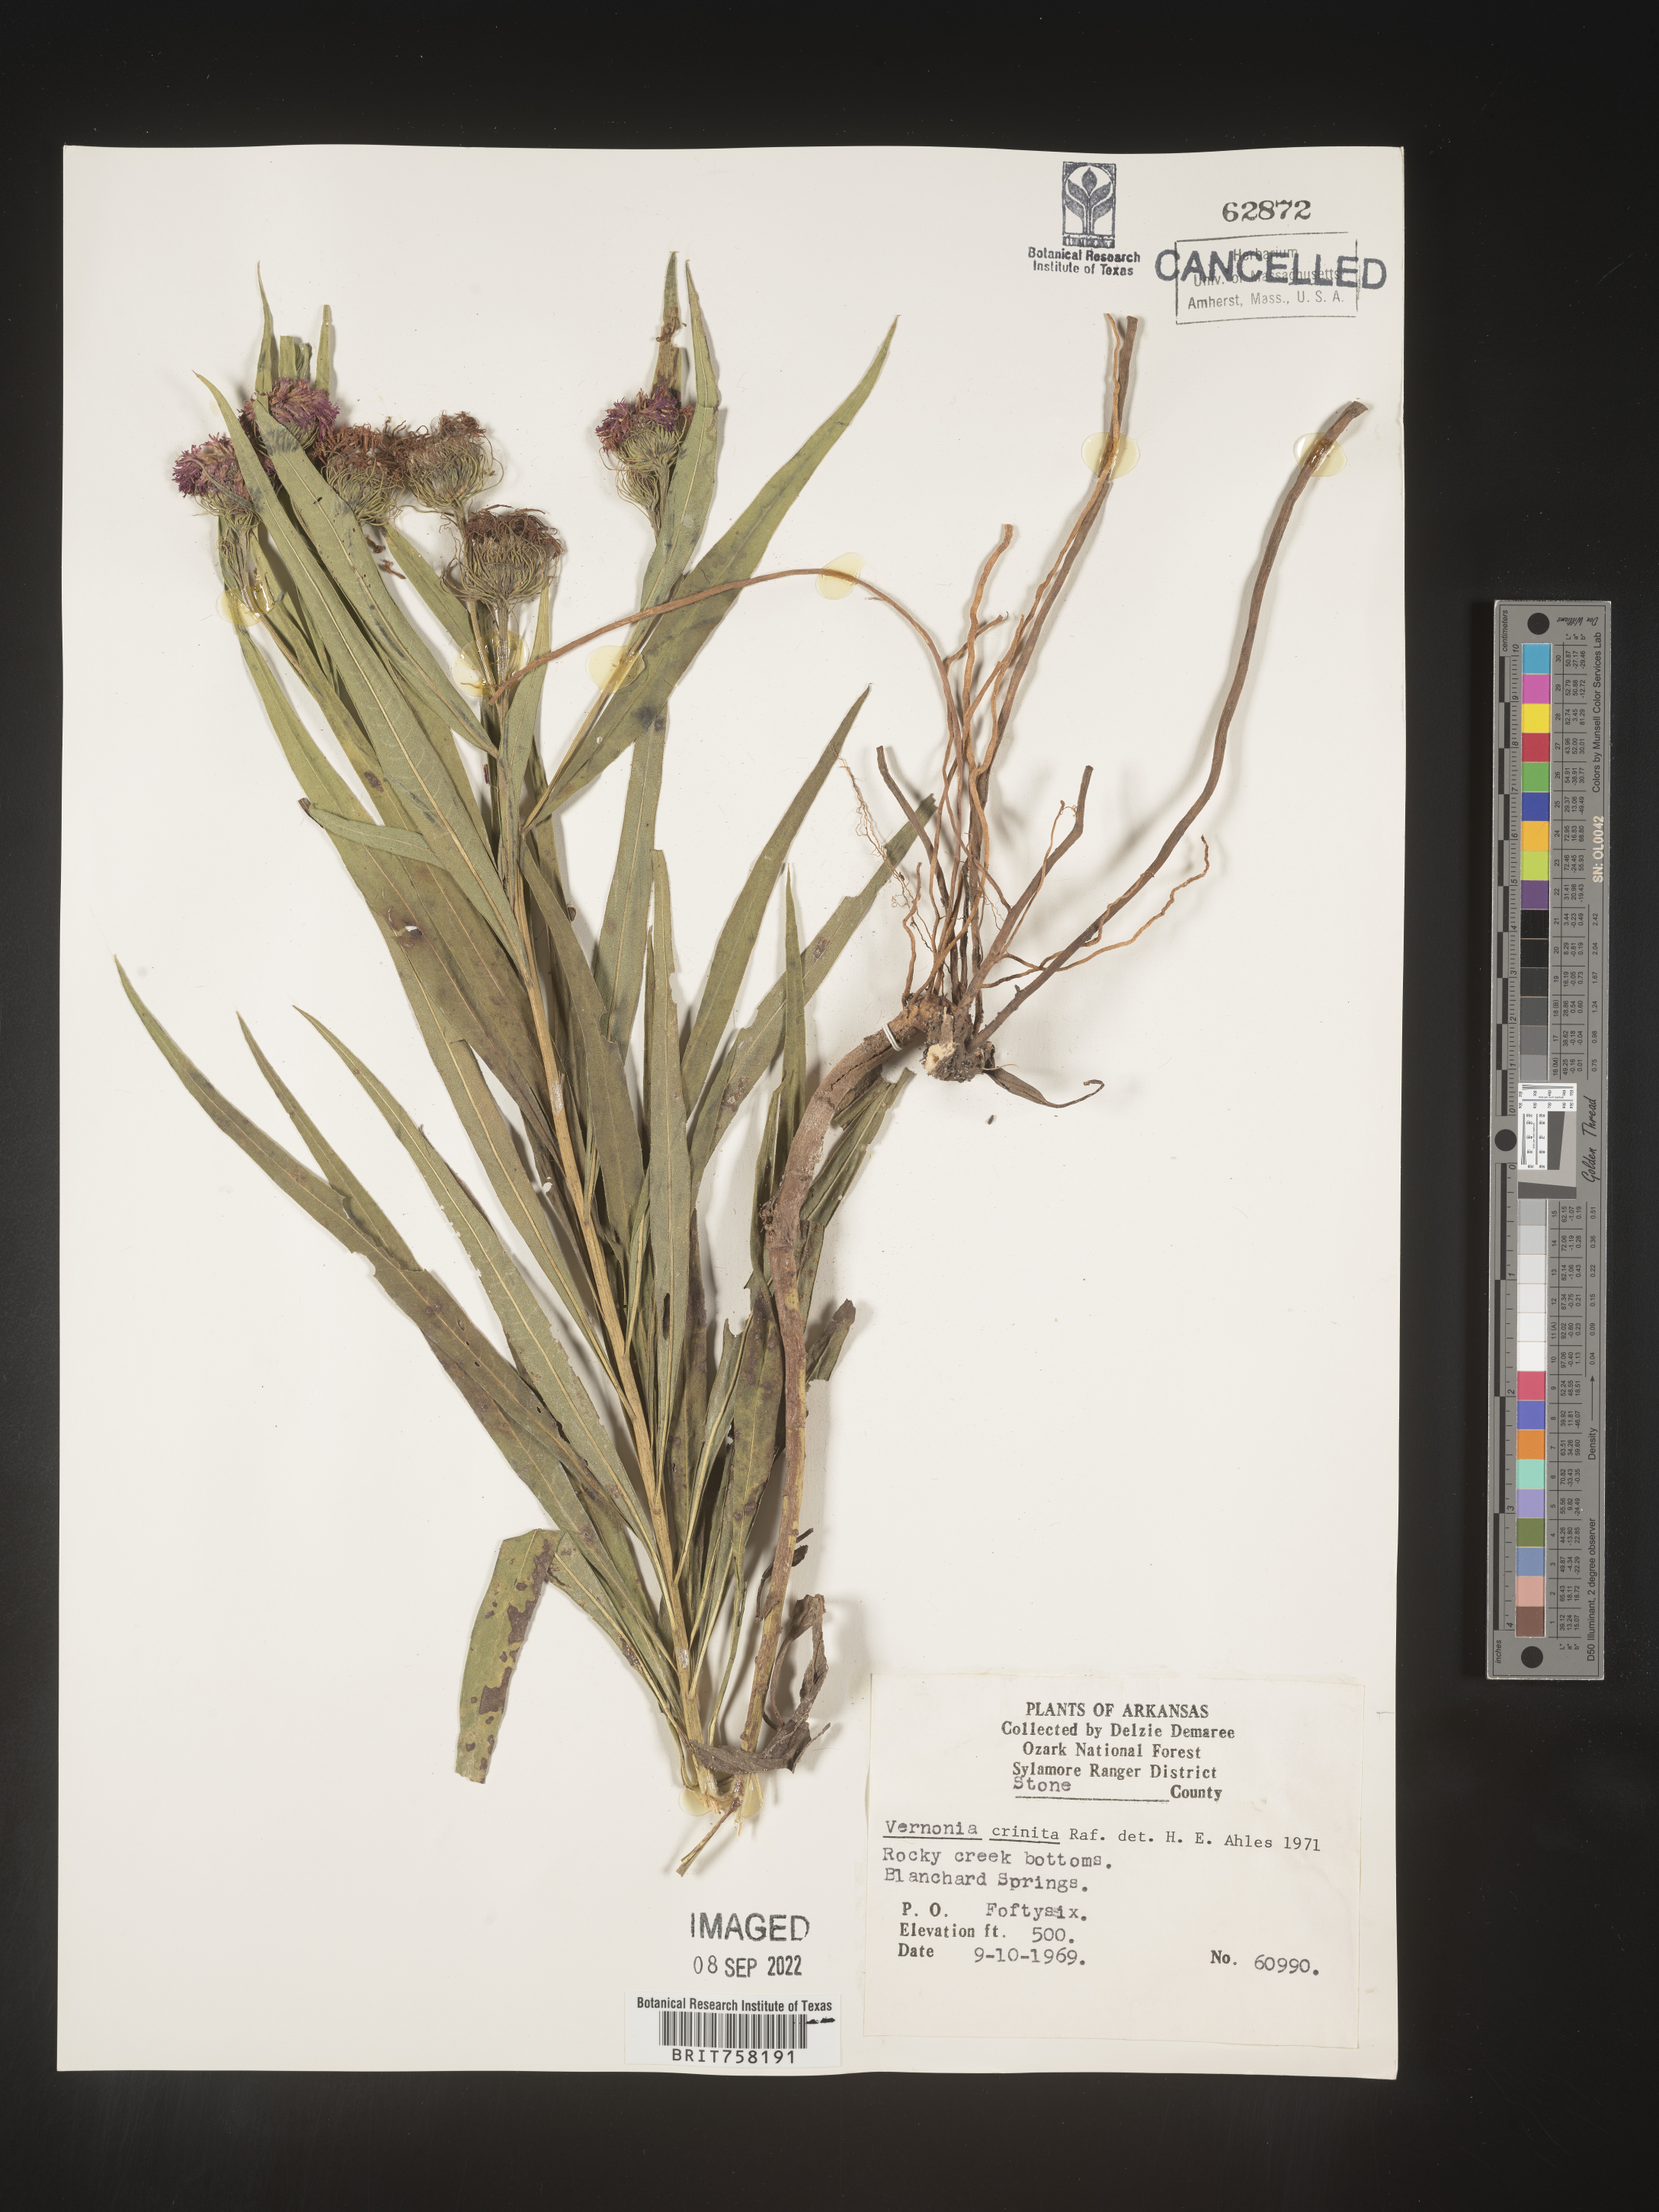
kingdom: Plantae
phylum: Tracheophyta
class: Magnoliopsida
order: Asterales
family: Asteraceae
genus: Vernonia
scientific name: Vernonia arkansana
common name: Ozark ironweed
